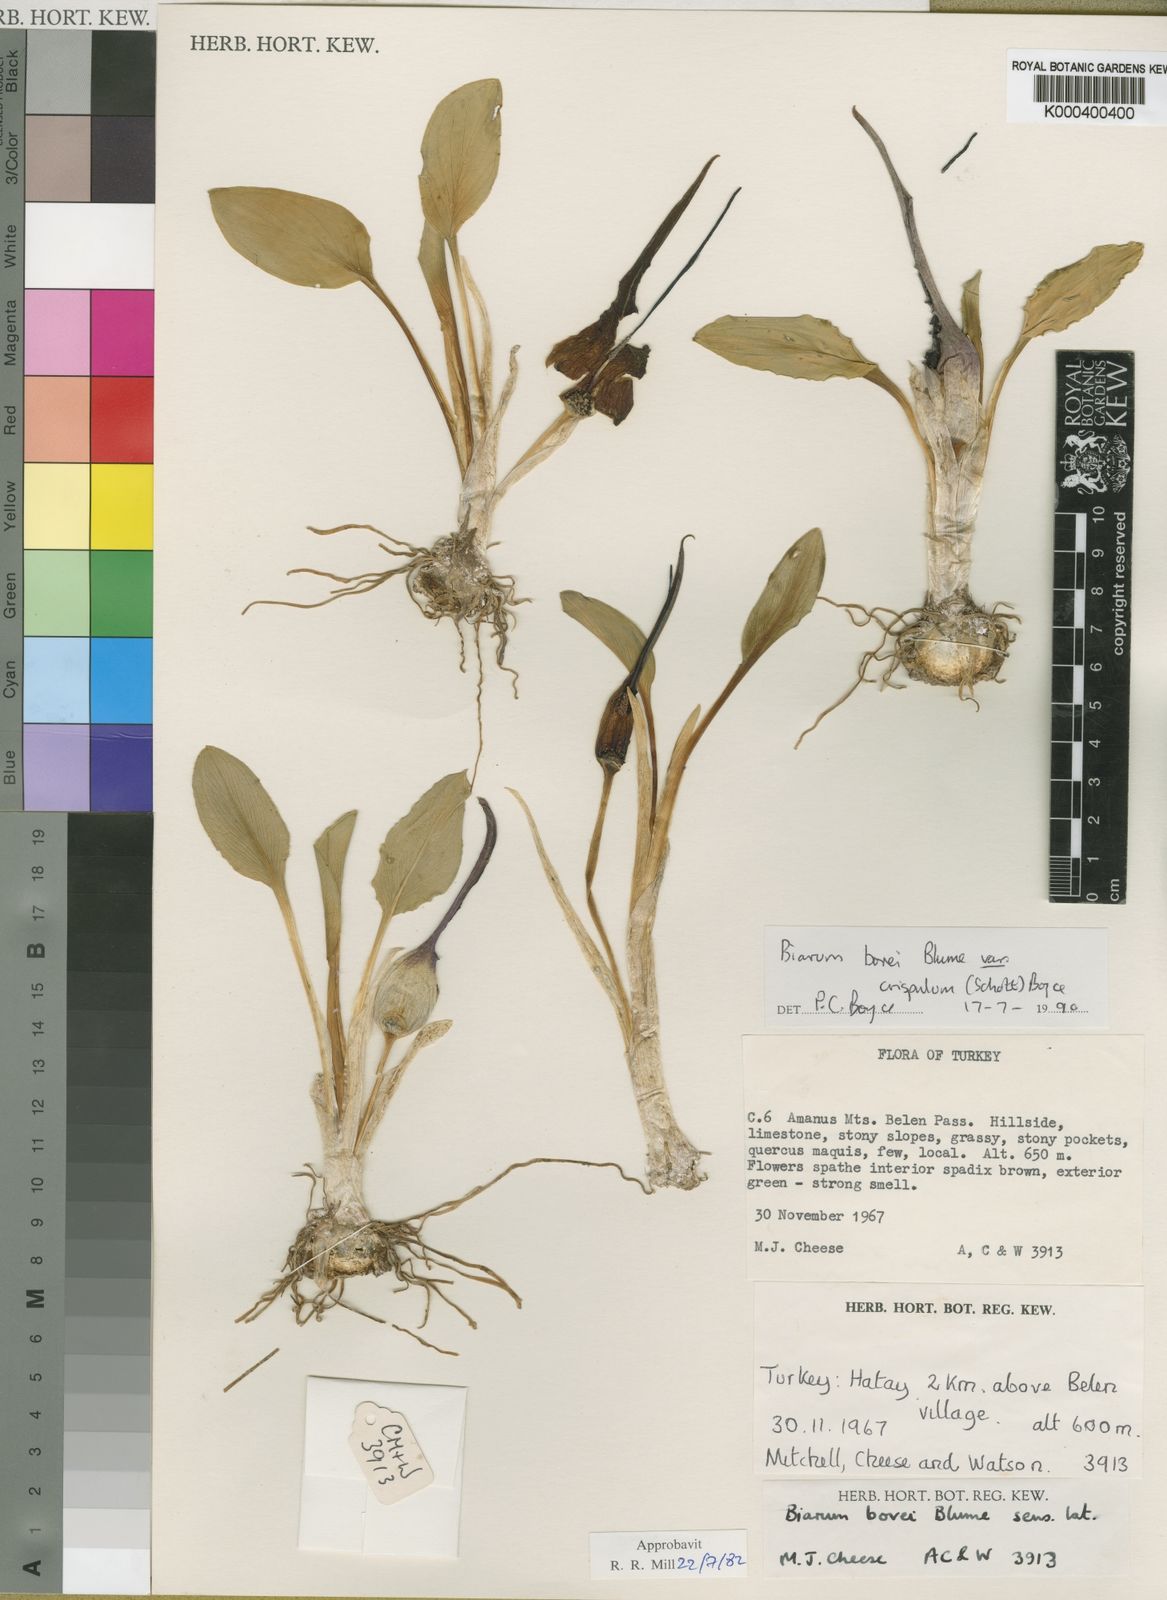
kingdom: Plantae
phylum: Tracheophyta
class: Liliopsida
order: Alismatales
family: Araceae
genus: Biarum
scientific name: Biarum bovei
